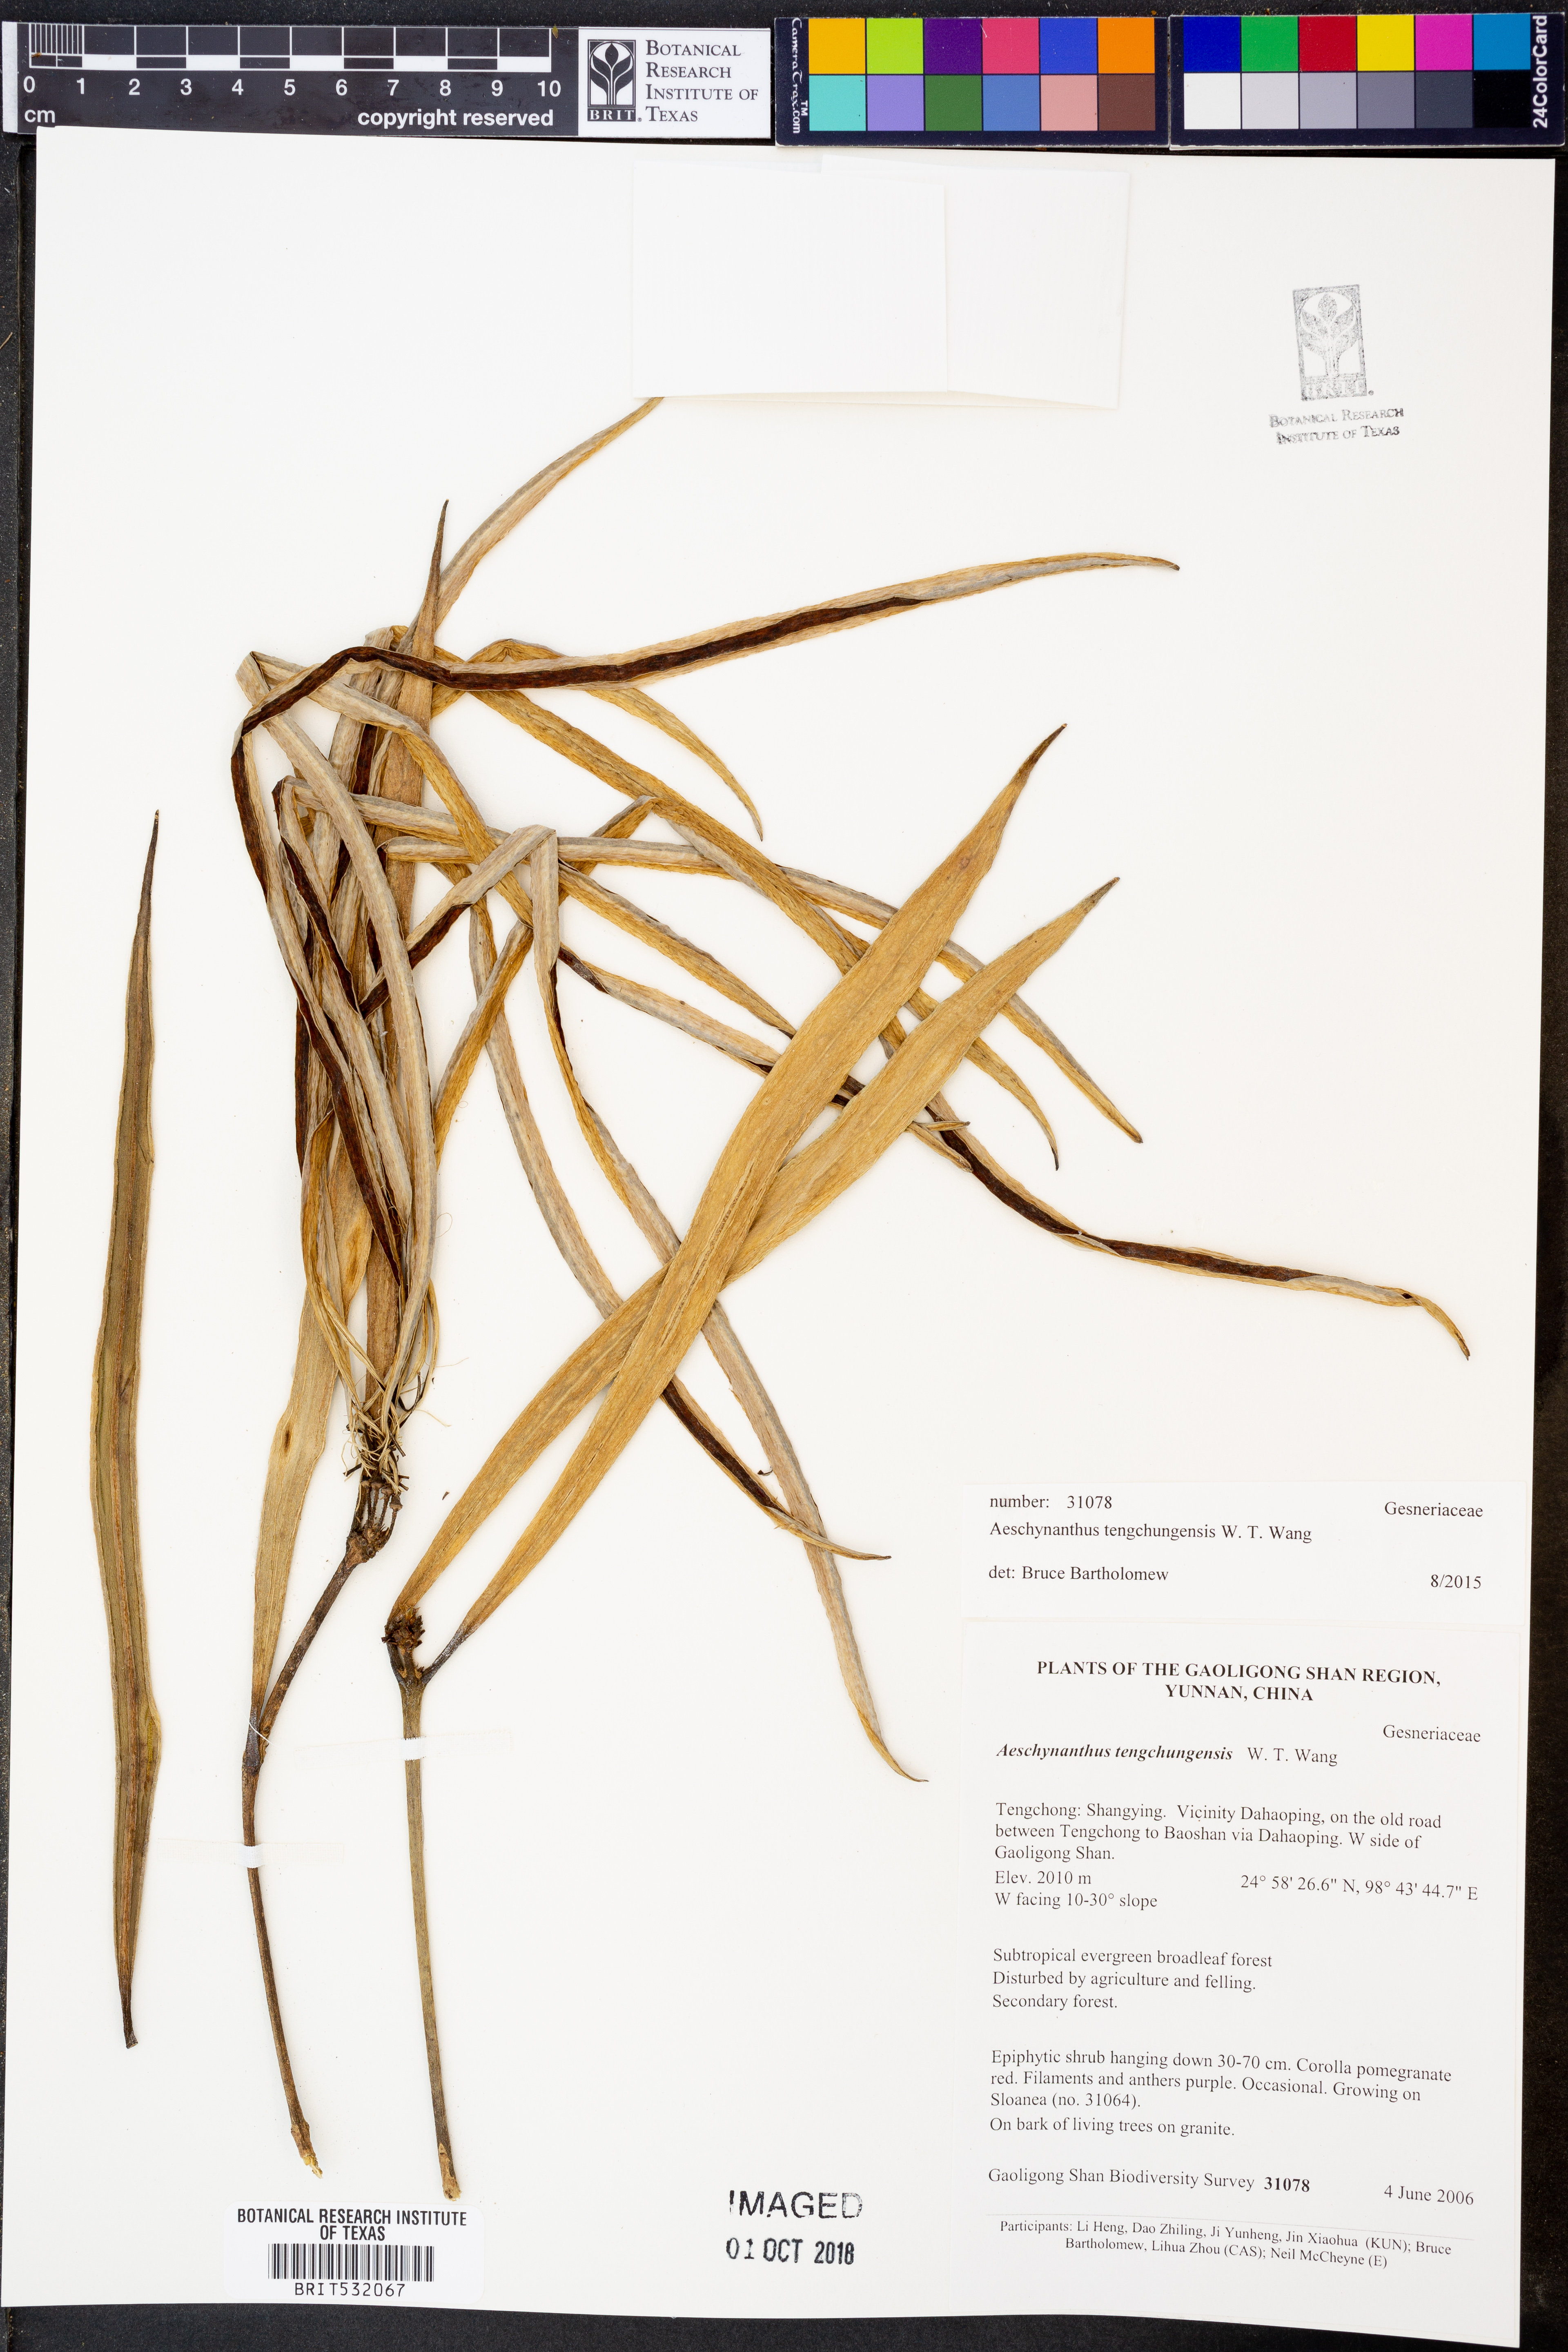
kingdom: Plantae
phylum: Tracheophyta
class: Magnoliopsida
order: Lamiales
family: Gesneriaceae
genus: Aeschynanthus
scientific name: Aeschynanthus tengchungensis
